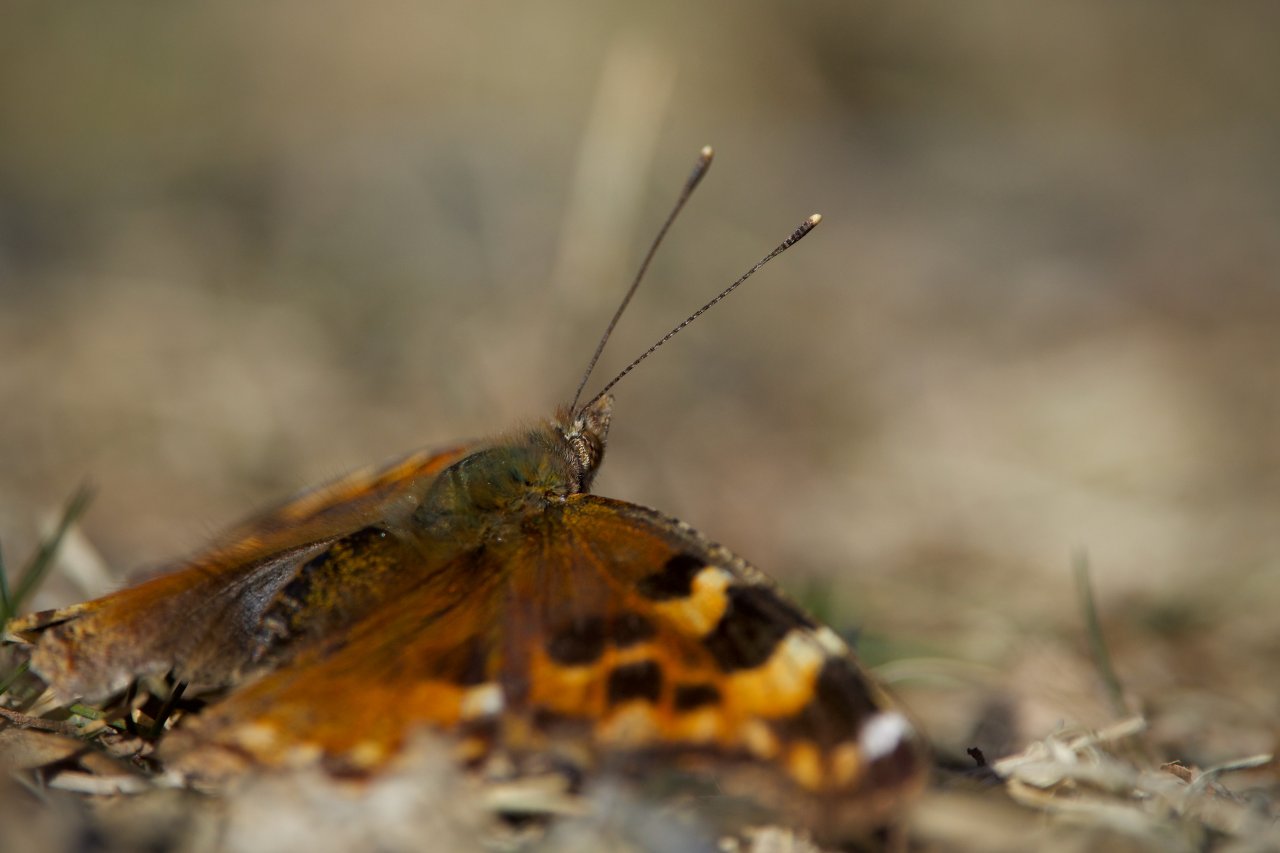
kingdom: Animalia
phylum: Arthropoda
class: Insecta
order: Lepidoptera
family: Nymphalidae
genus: Polygonia
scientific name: Polygonia vaualbum
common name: Compton Tortoiseshell
